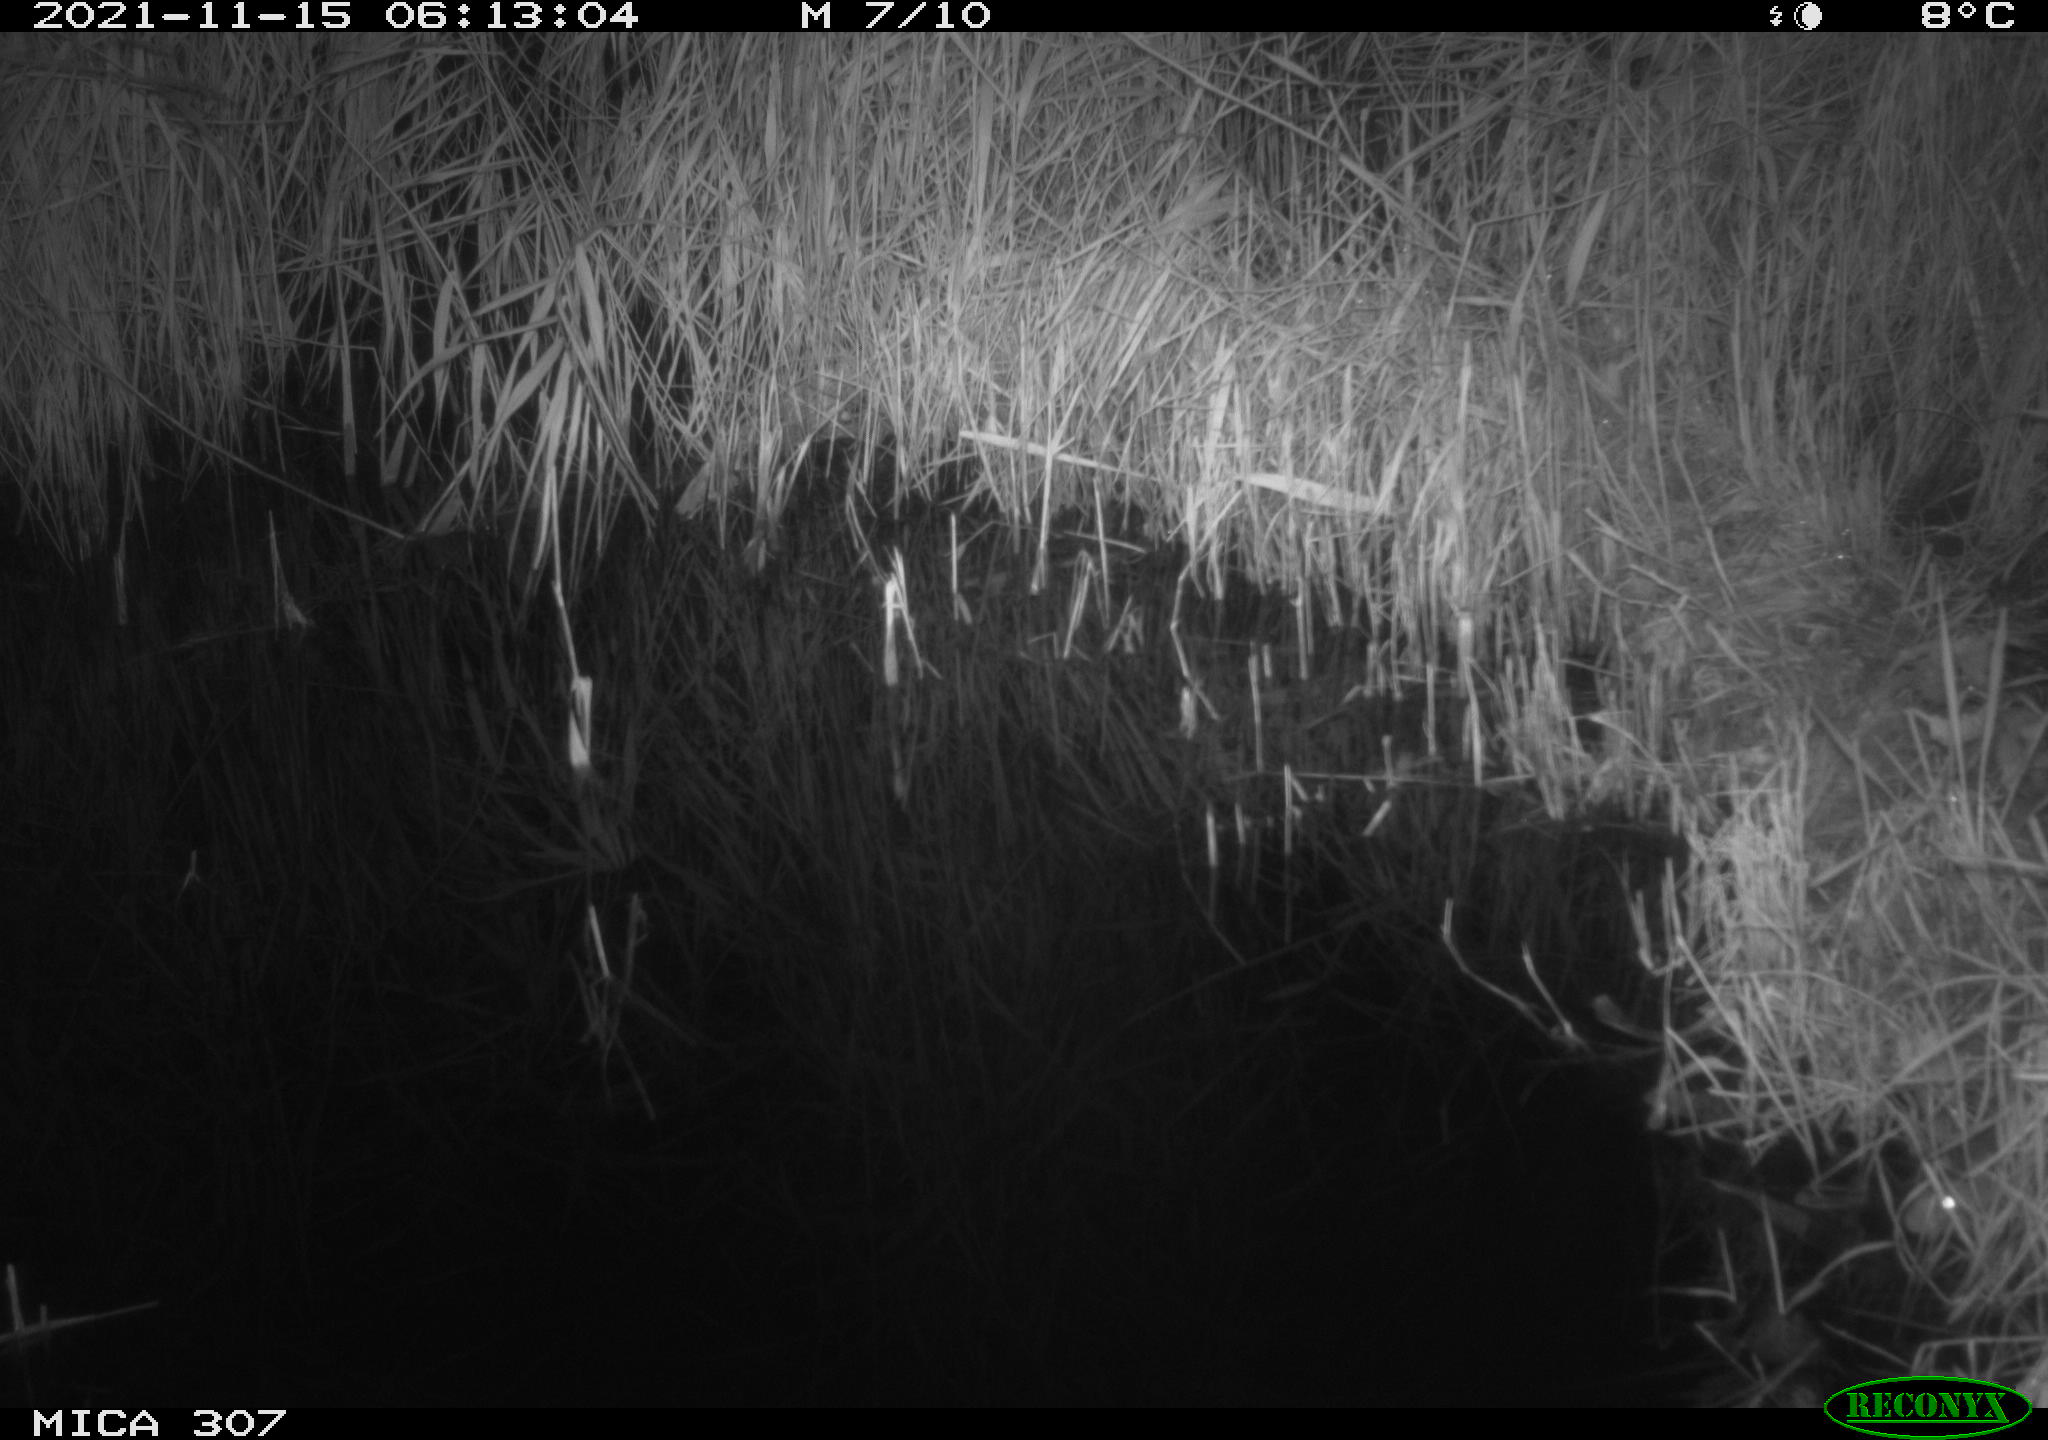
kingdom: Animalia
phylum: Chordata
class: Mammalia
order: Rodentia
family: Muridae
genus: Rattus
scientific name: Rattus norvegicus
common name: Brown rat
